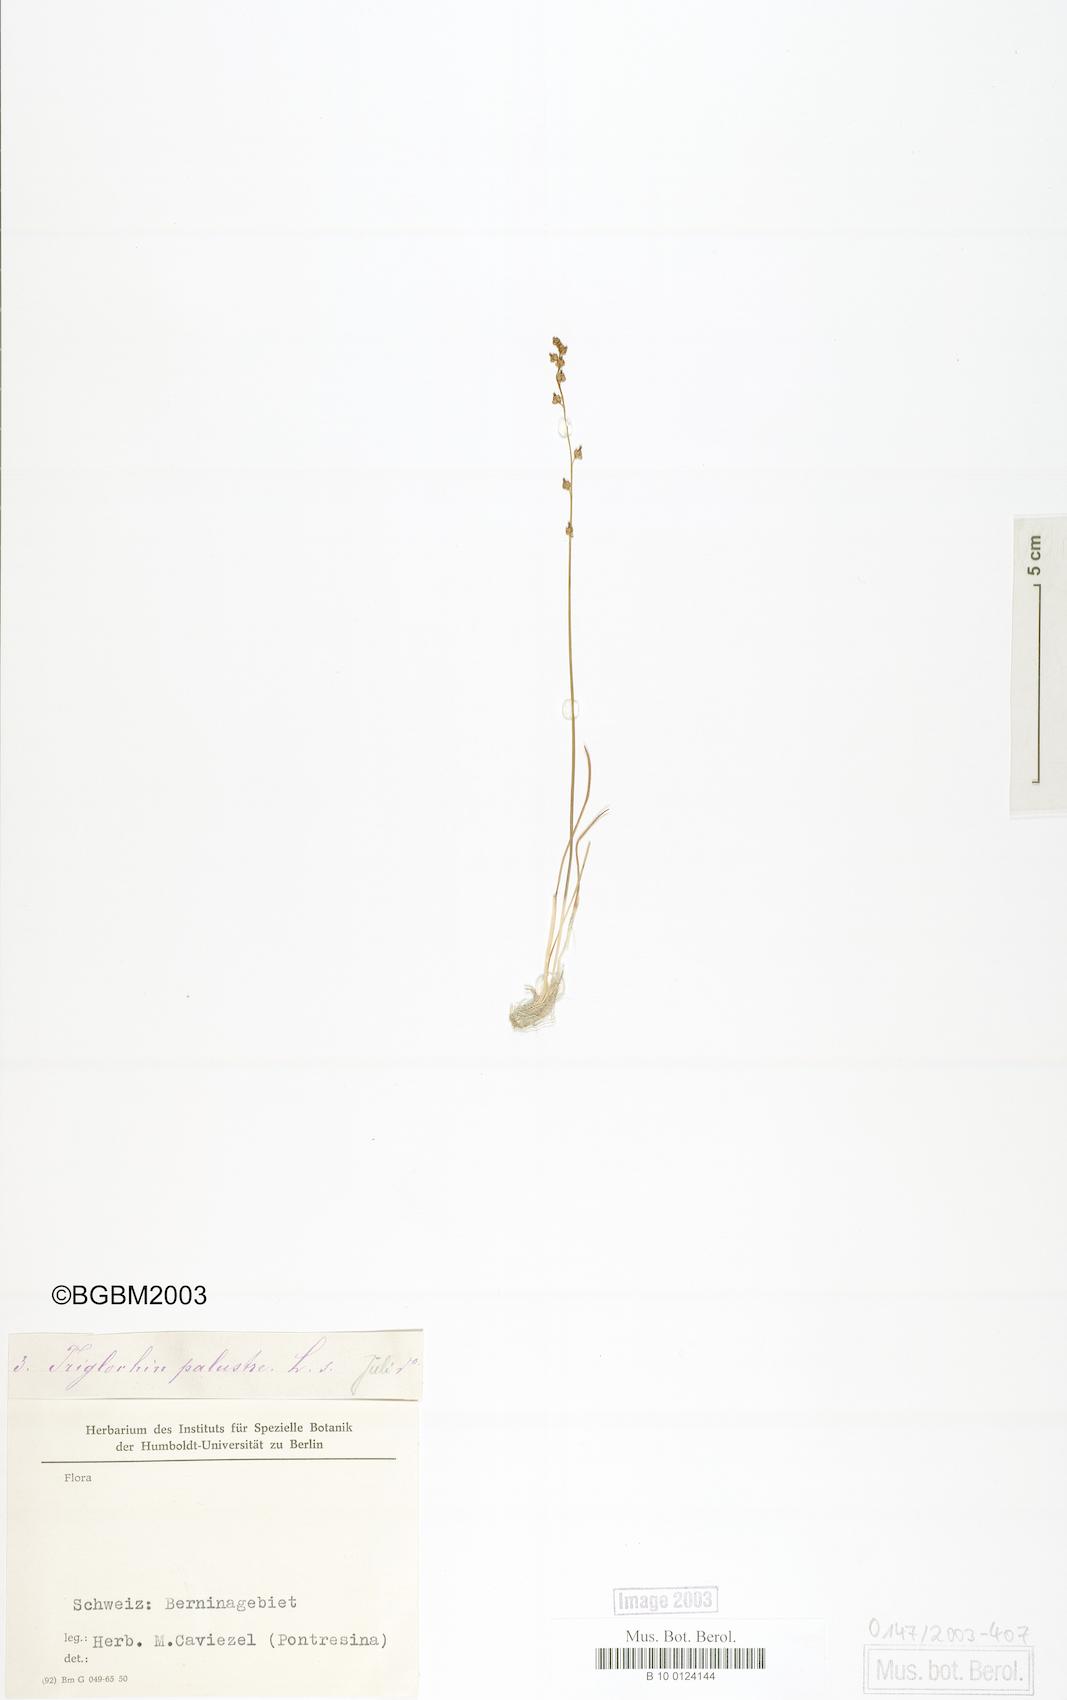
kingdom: Plantae
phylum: Tracheophyta
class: Liliopsida
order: Alismatales
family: Juncaginaceae
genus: Triglochin
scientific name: Triglochin palustris
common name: Marsh arrowgrass
